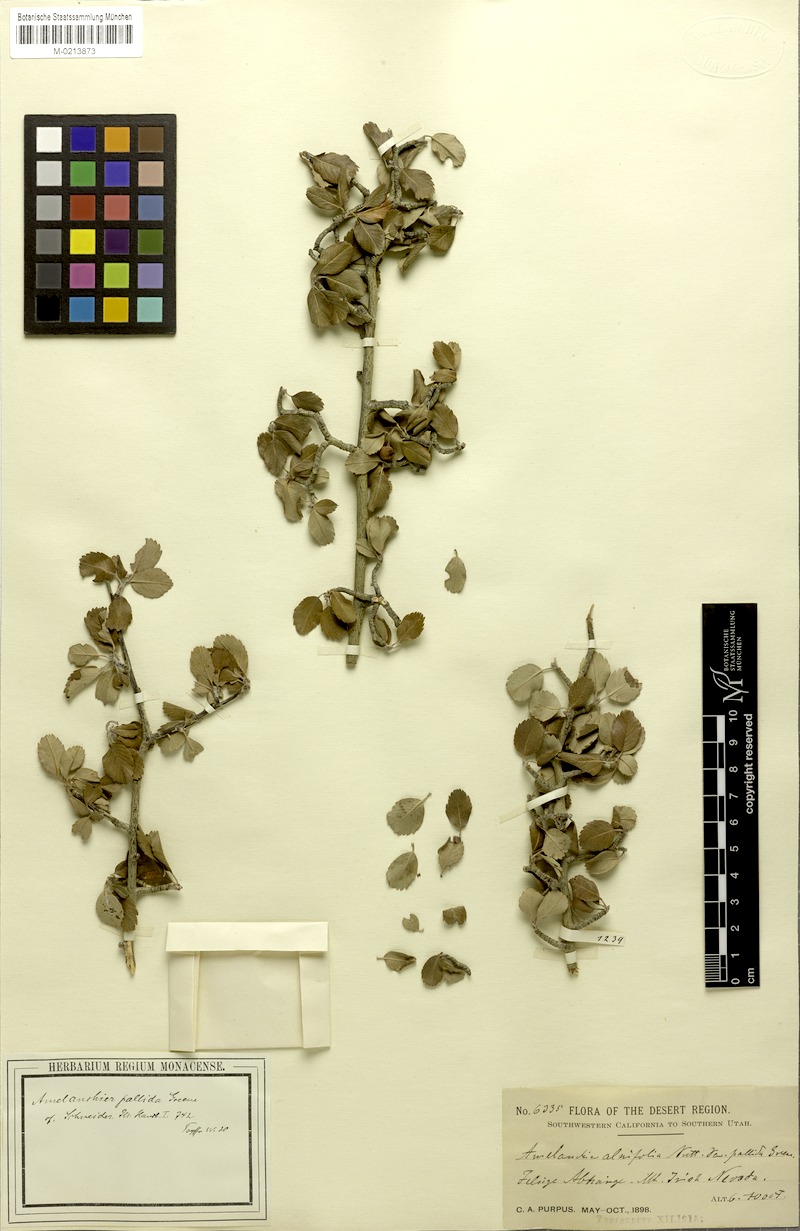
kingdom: Plantae
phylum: Tracheophyta
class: Magnoliopsida
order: Rosales
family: Rosaceae
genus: Amelanchier
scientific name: Amelanchier pallida
